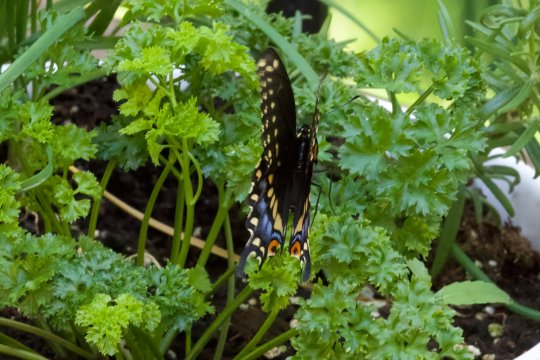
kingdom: Animalia
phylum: Arthropoda
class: Insecta
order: Lepidoptera
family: Papilionidae
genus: Papilio
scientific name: Papilio polyxenes
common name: Black Swallowtail
